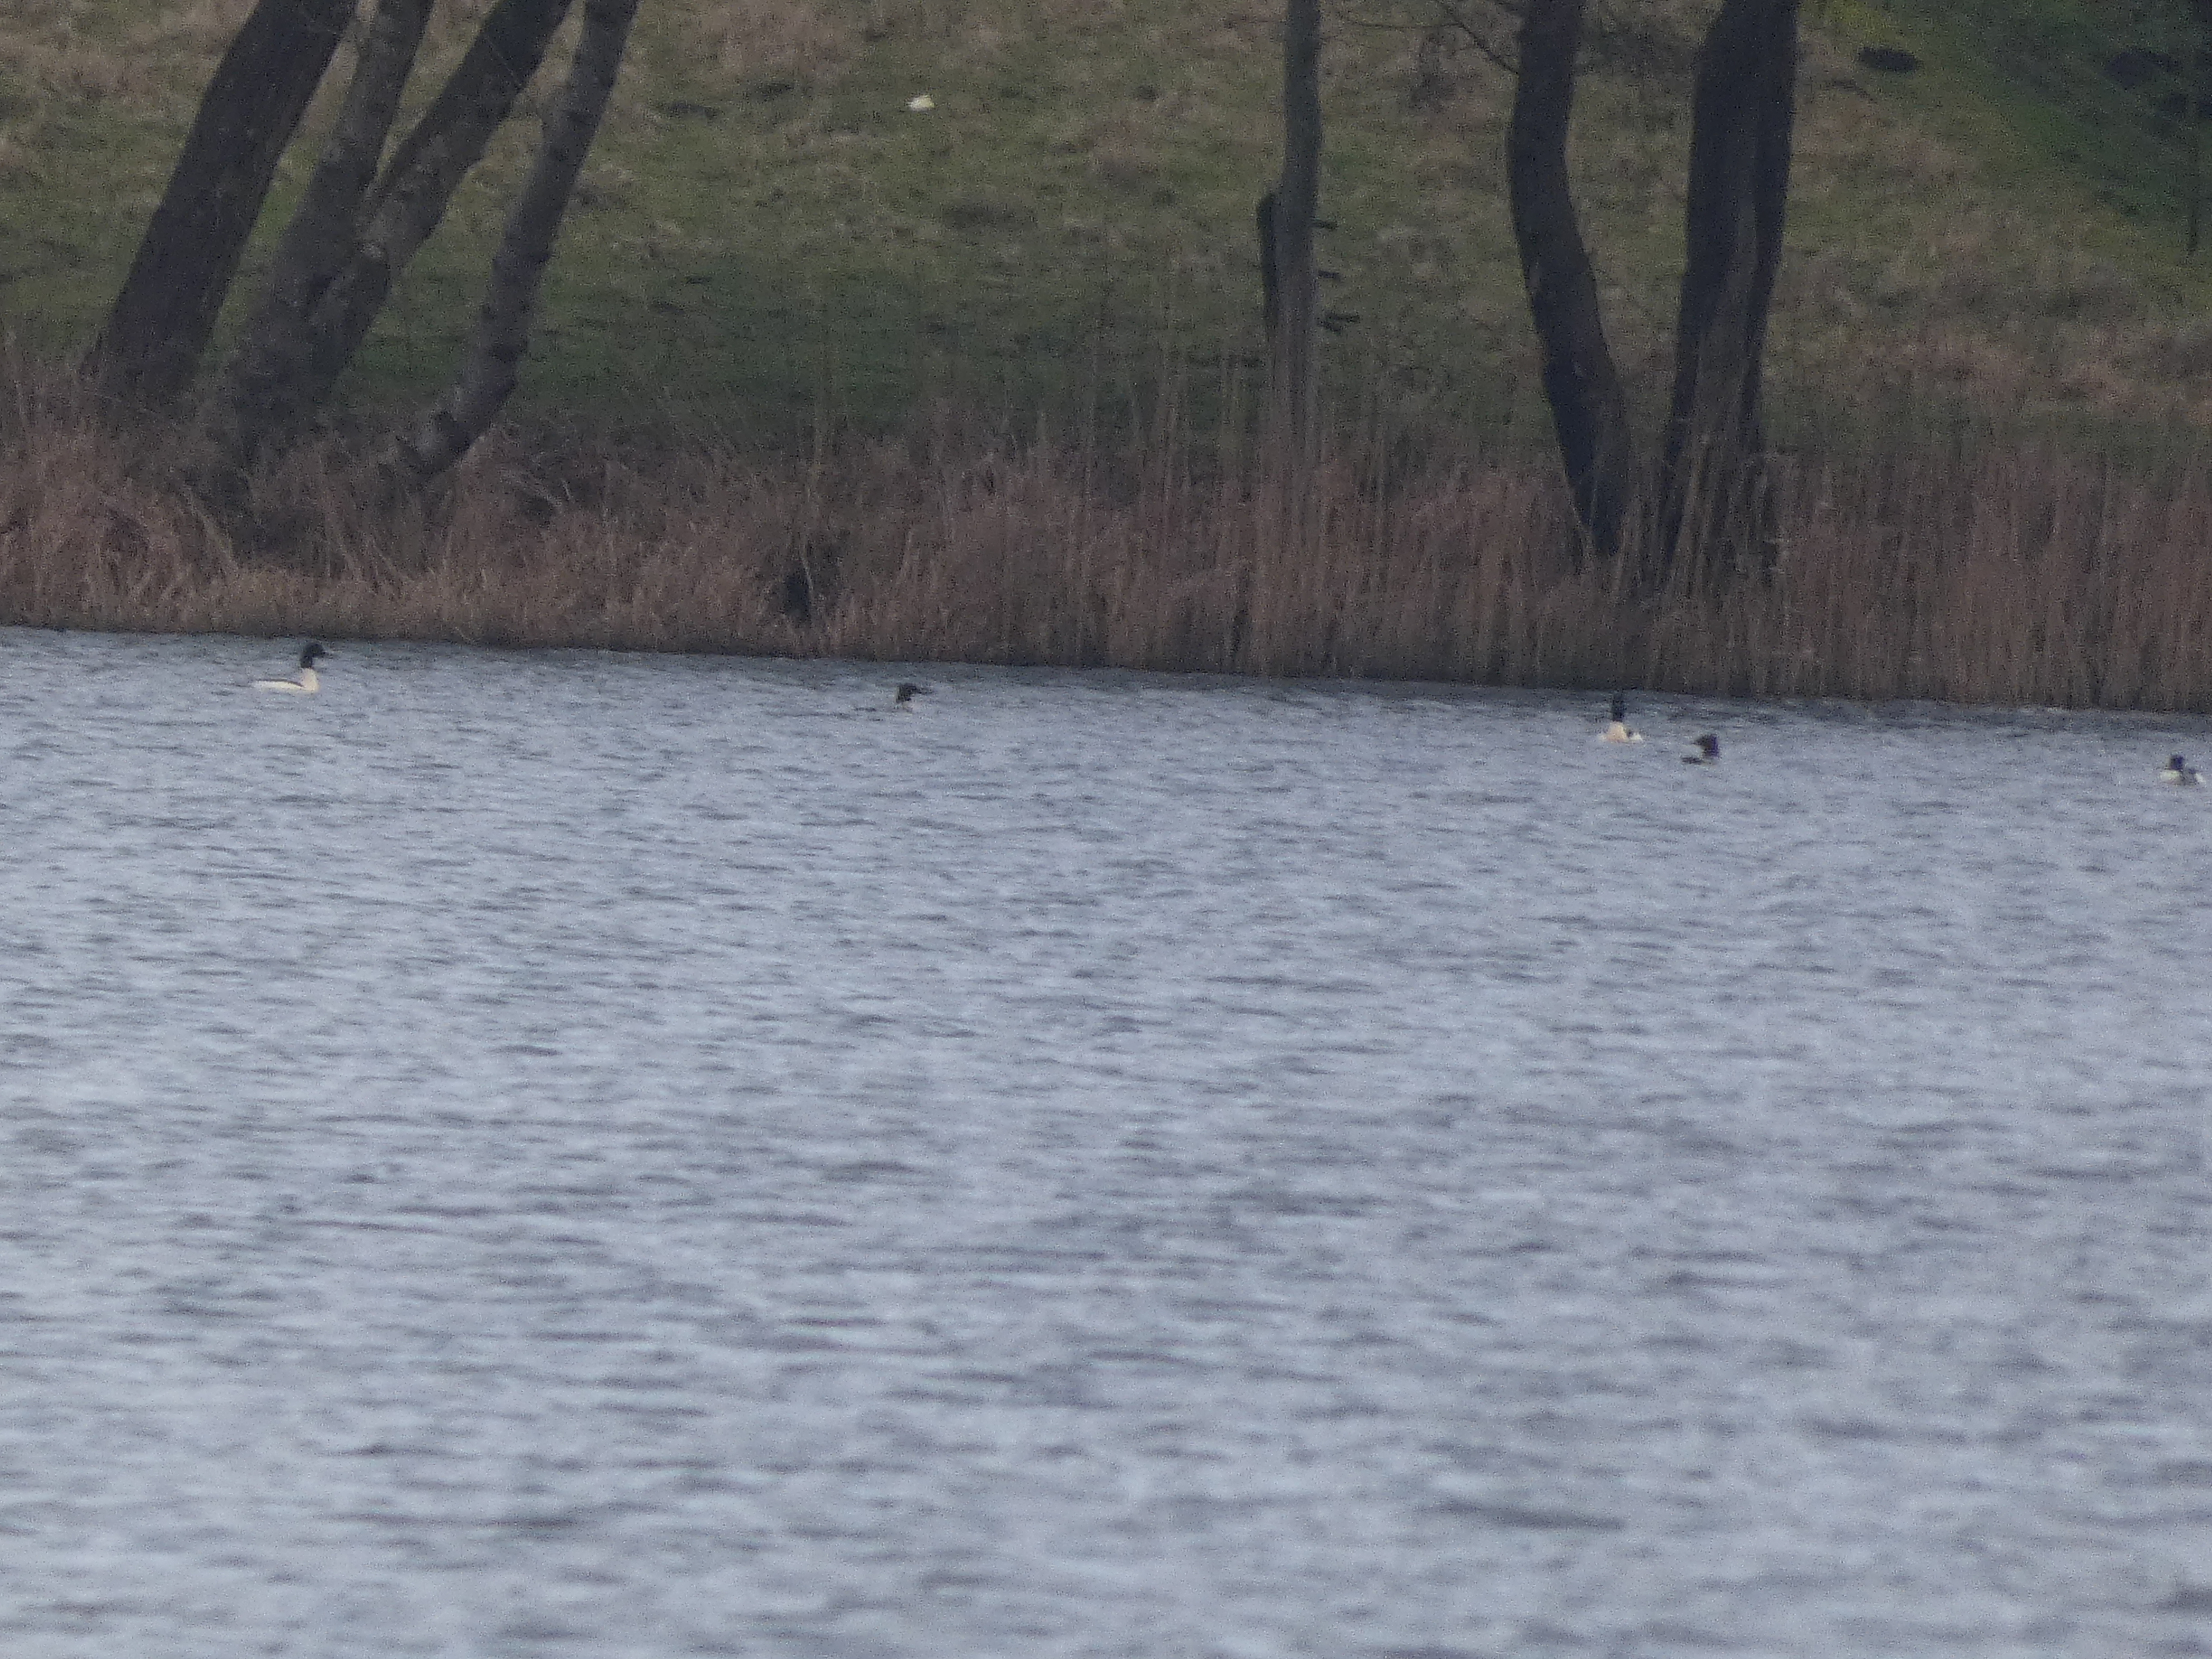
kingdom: Animalia
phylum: Chordata
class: Aves
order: Anseriformes
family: Anatidae
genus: Mergus
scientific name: Mergus merganser
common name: Stor skallesluger
